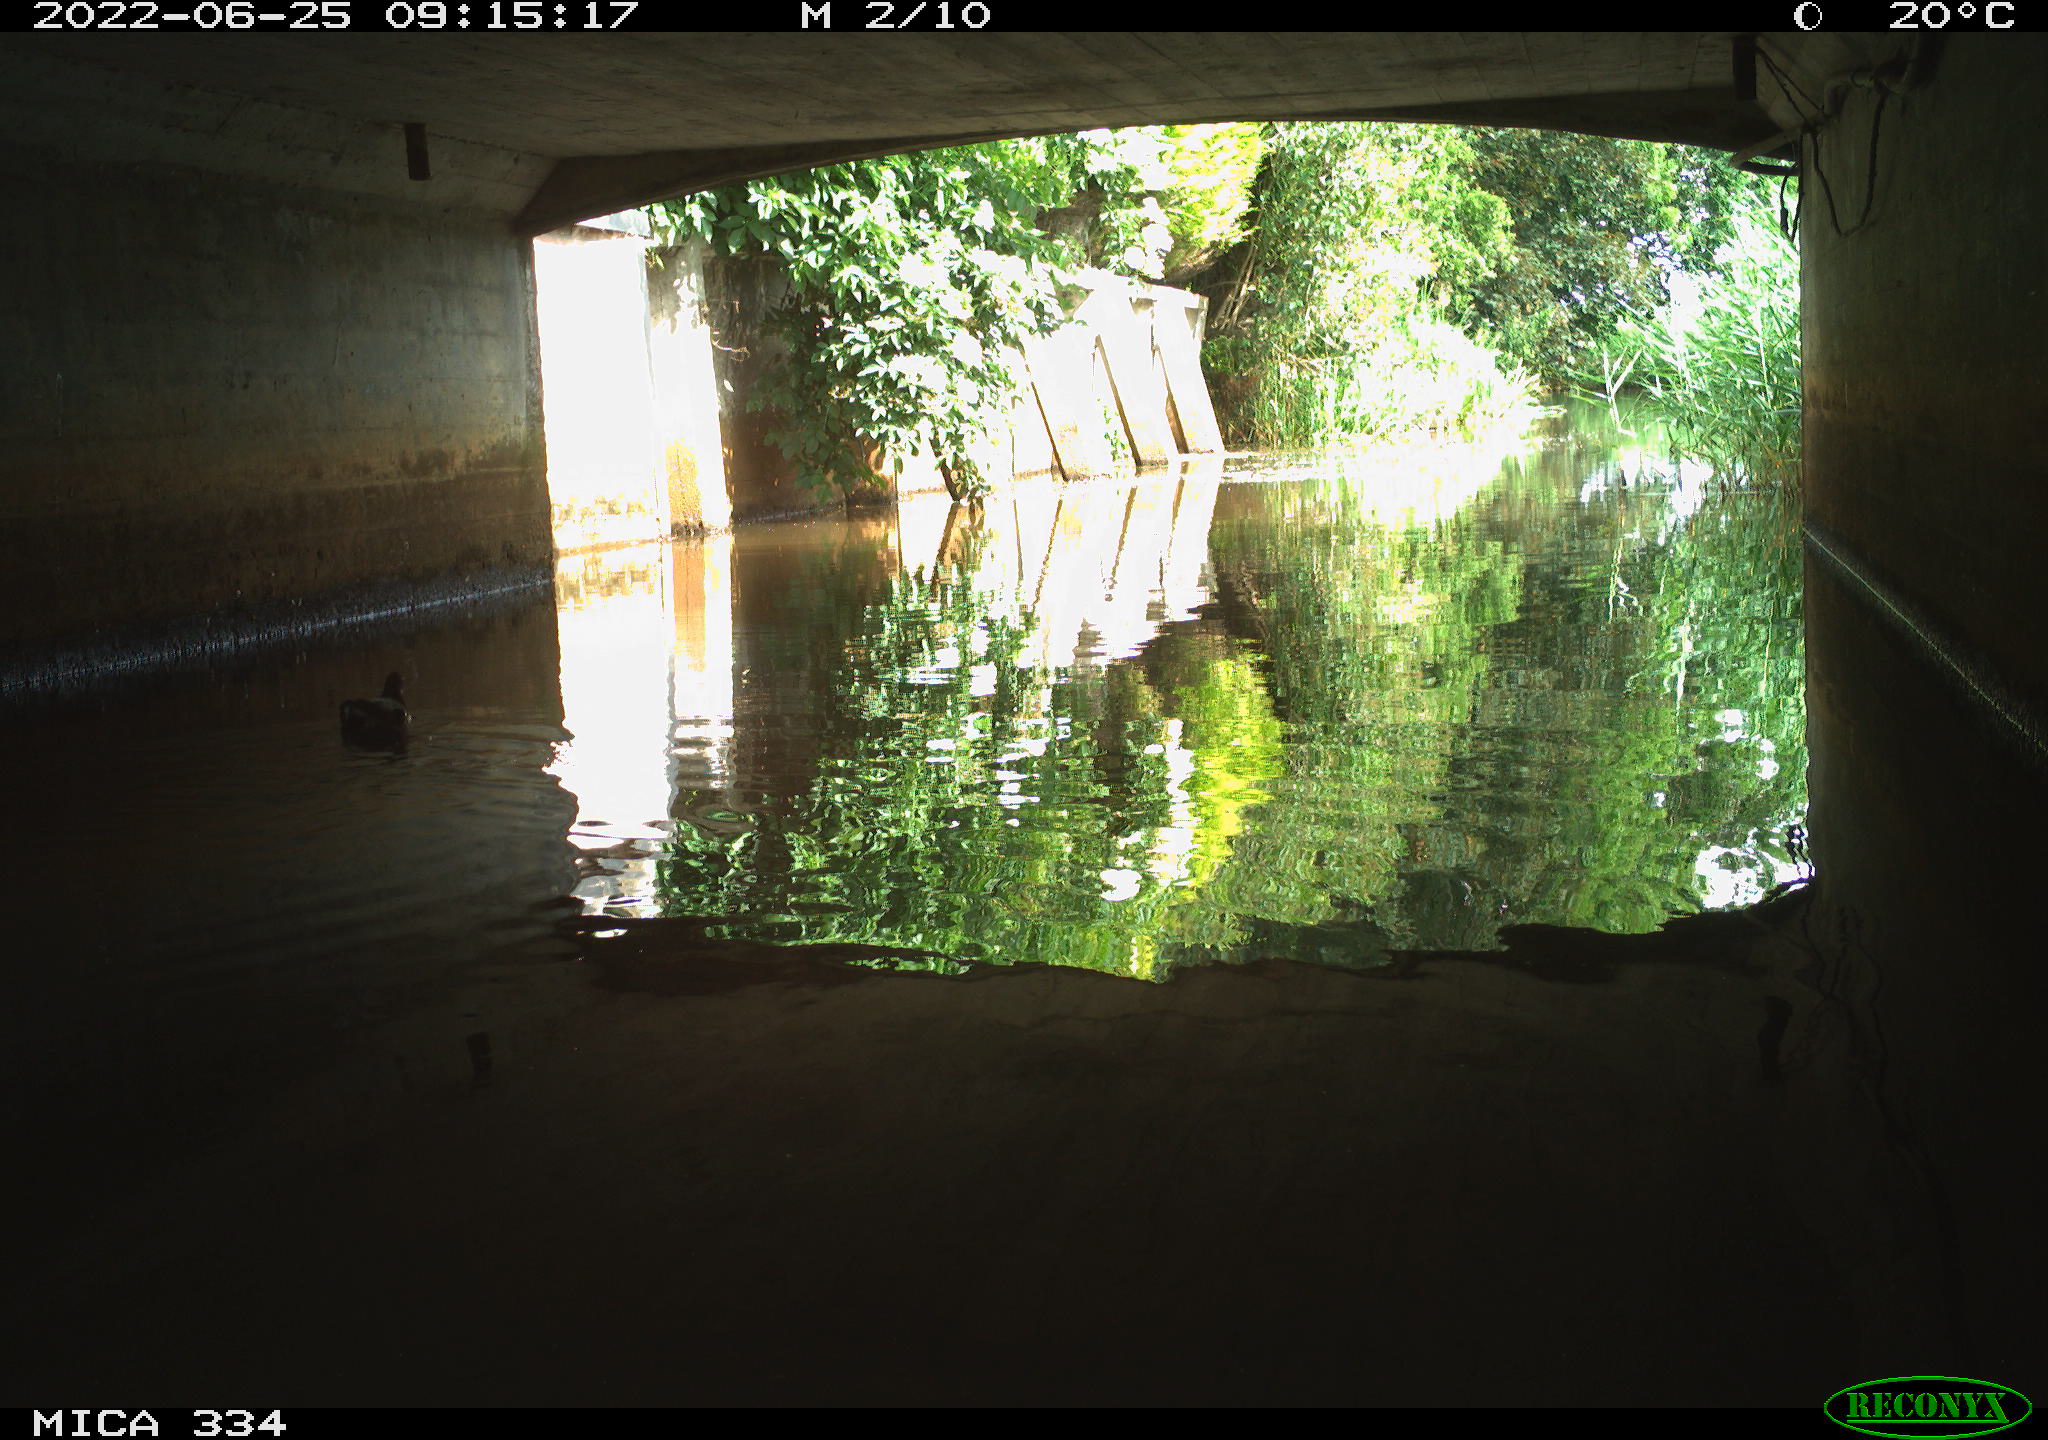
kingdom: Animalia
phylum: Chordata
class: Aves
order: Gruiformes
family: Rallidae
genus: Gallinula
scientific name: Gallinula chloropus
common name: Common moorhen
